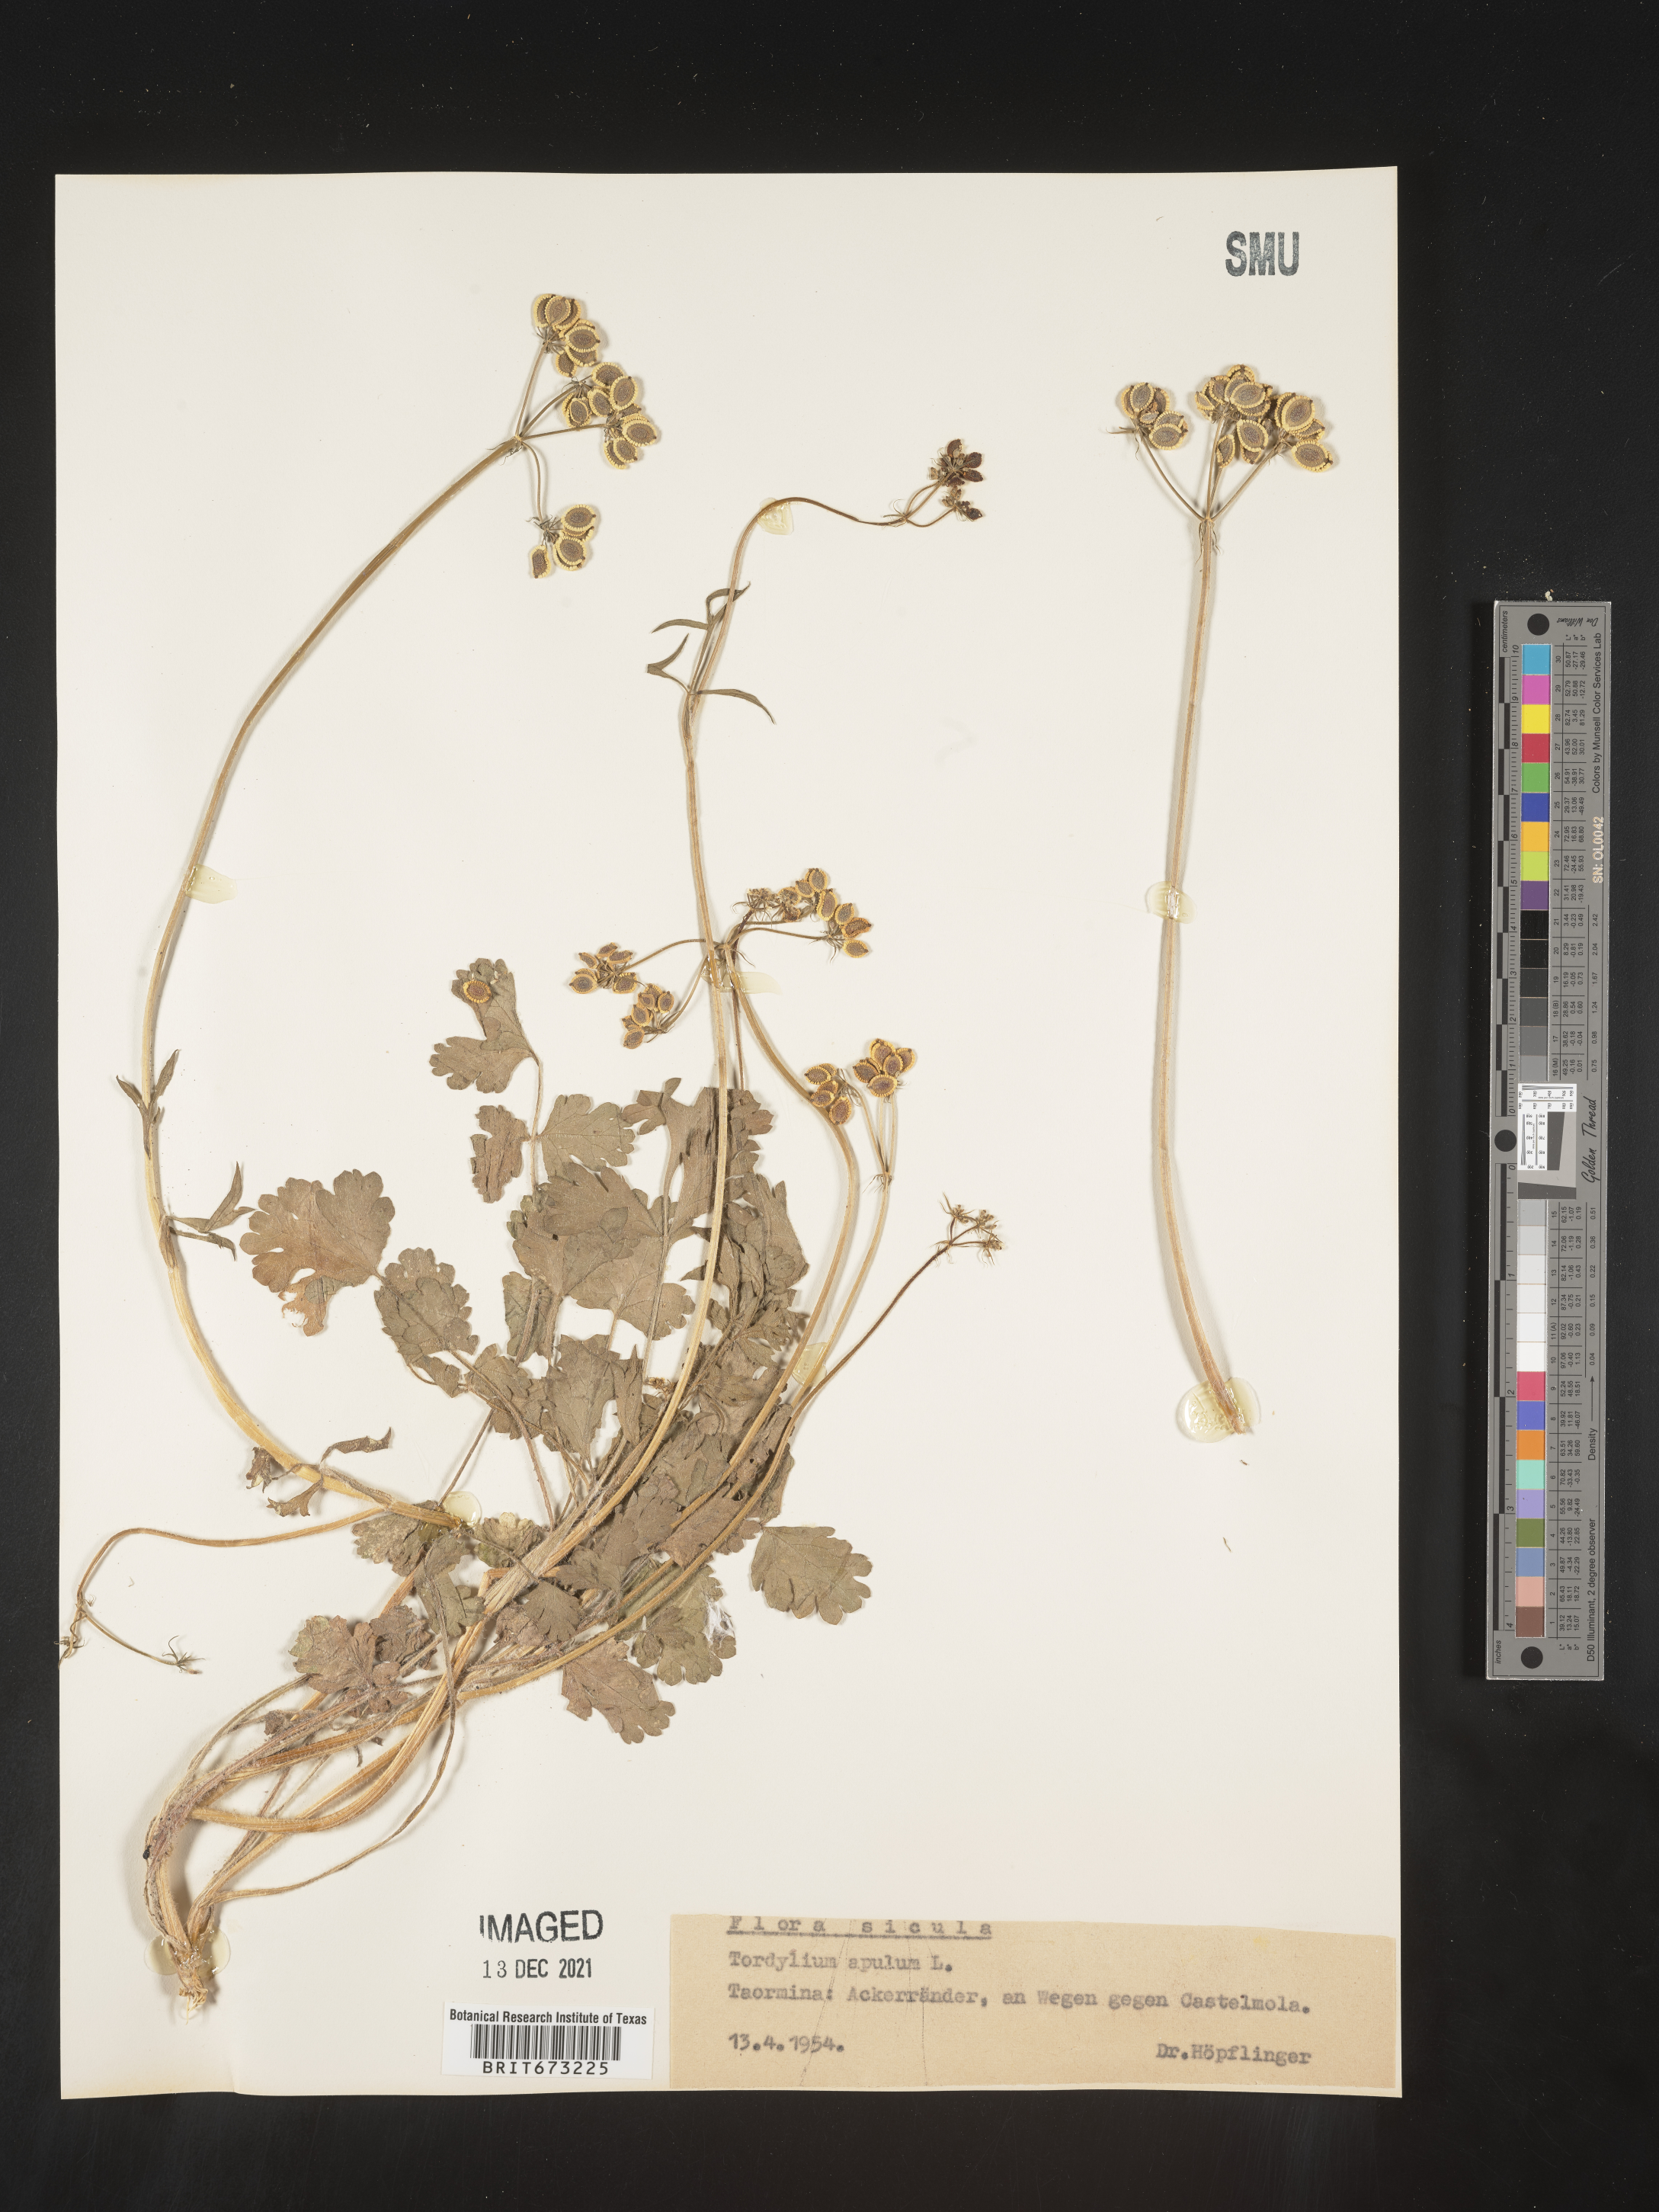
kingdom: Plantae
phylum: Tracheophyta
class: Magnoliopsida
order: Apiales
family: Apiaceae
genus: Tordylium
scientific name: Tordylium
